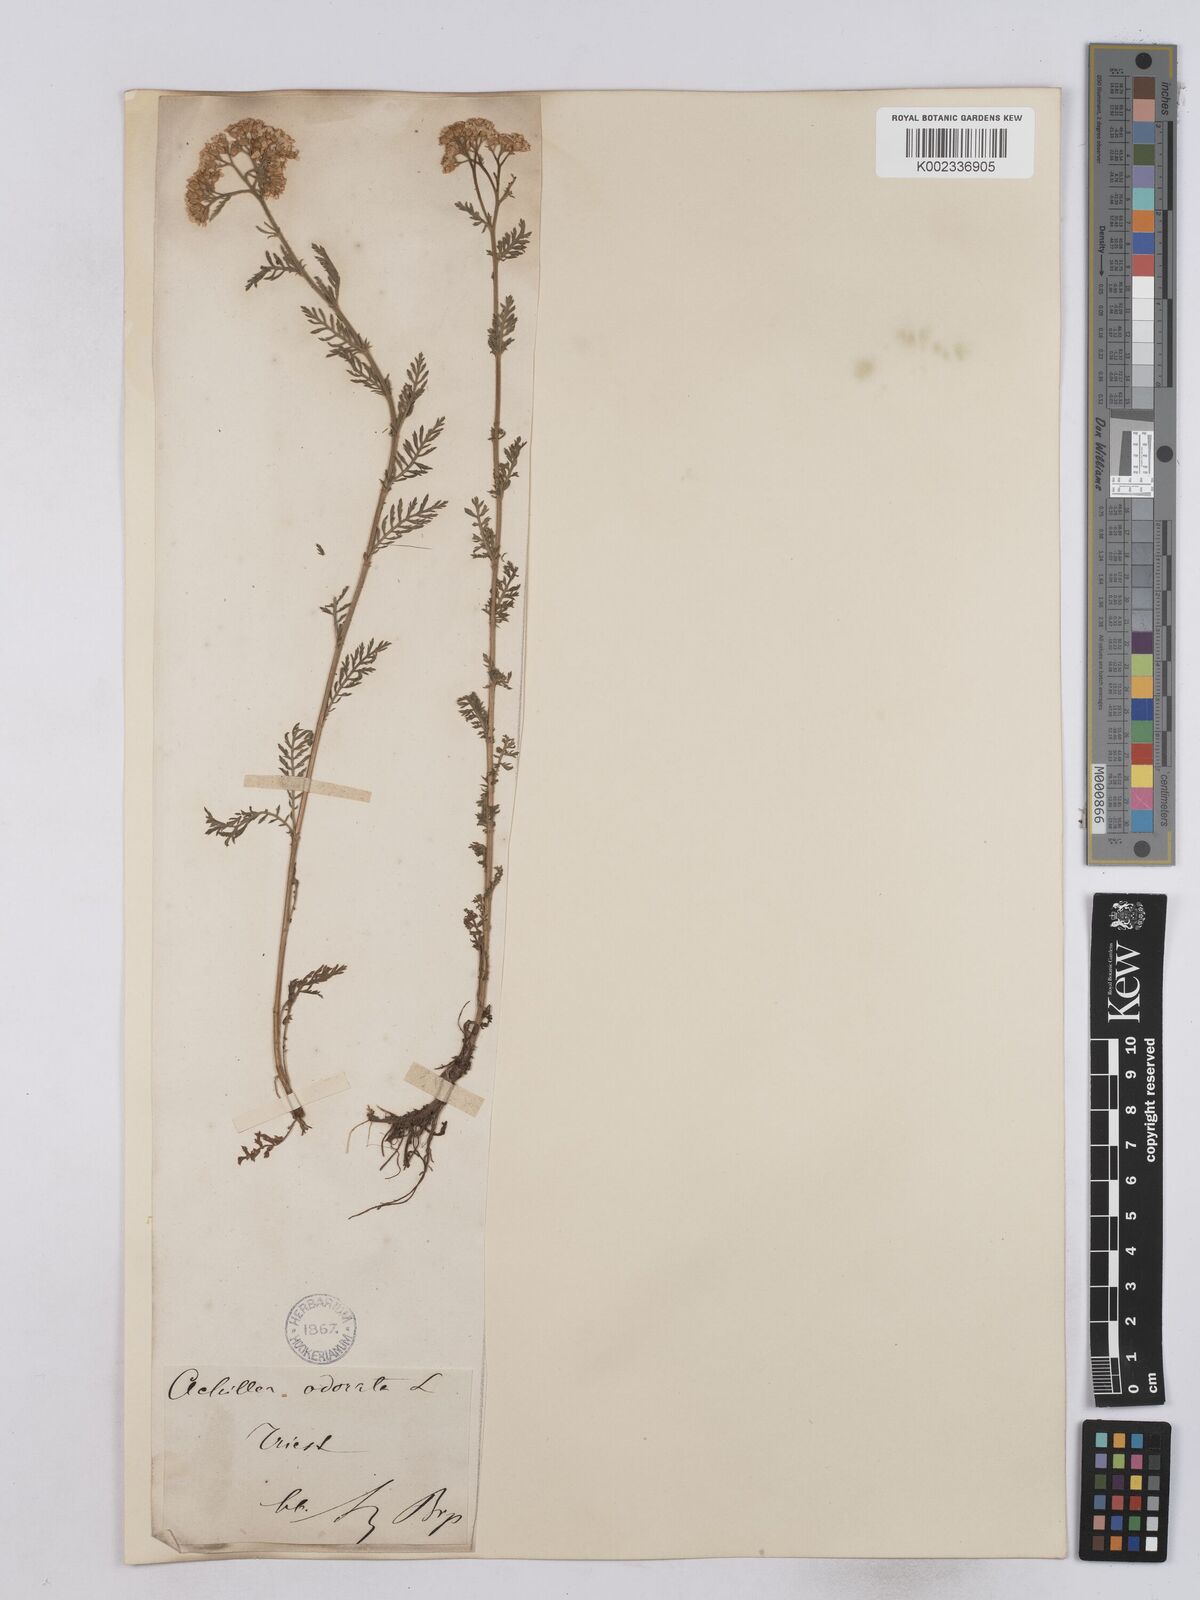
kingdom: Plantae
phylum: Tracheophyta
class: Magnoliopsida
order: Asterales
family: Asteraceae
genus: Achillea
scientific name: Achillea odorata
